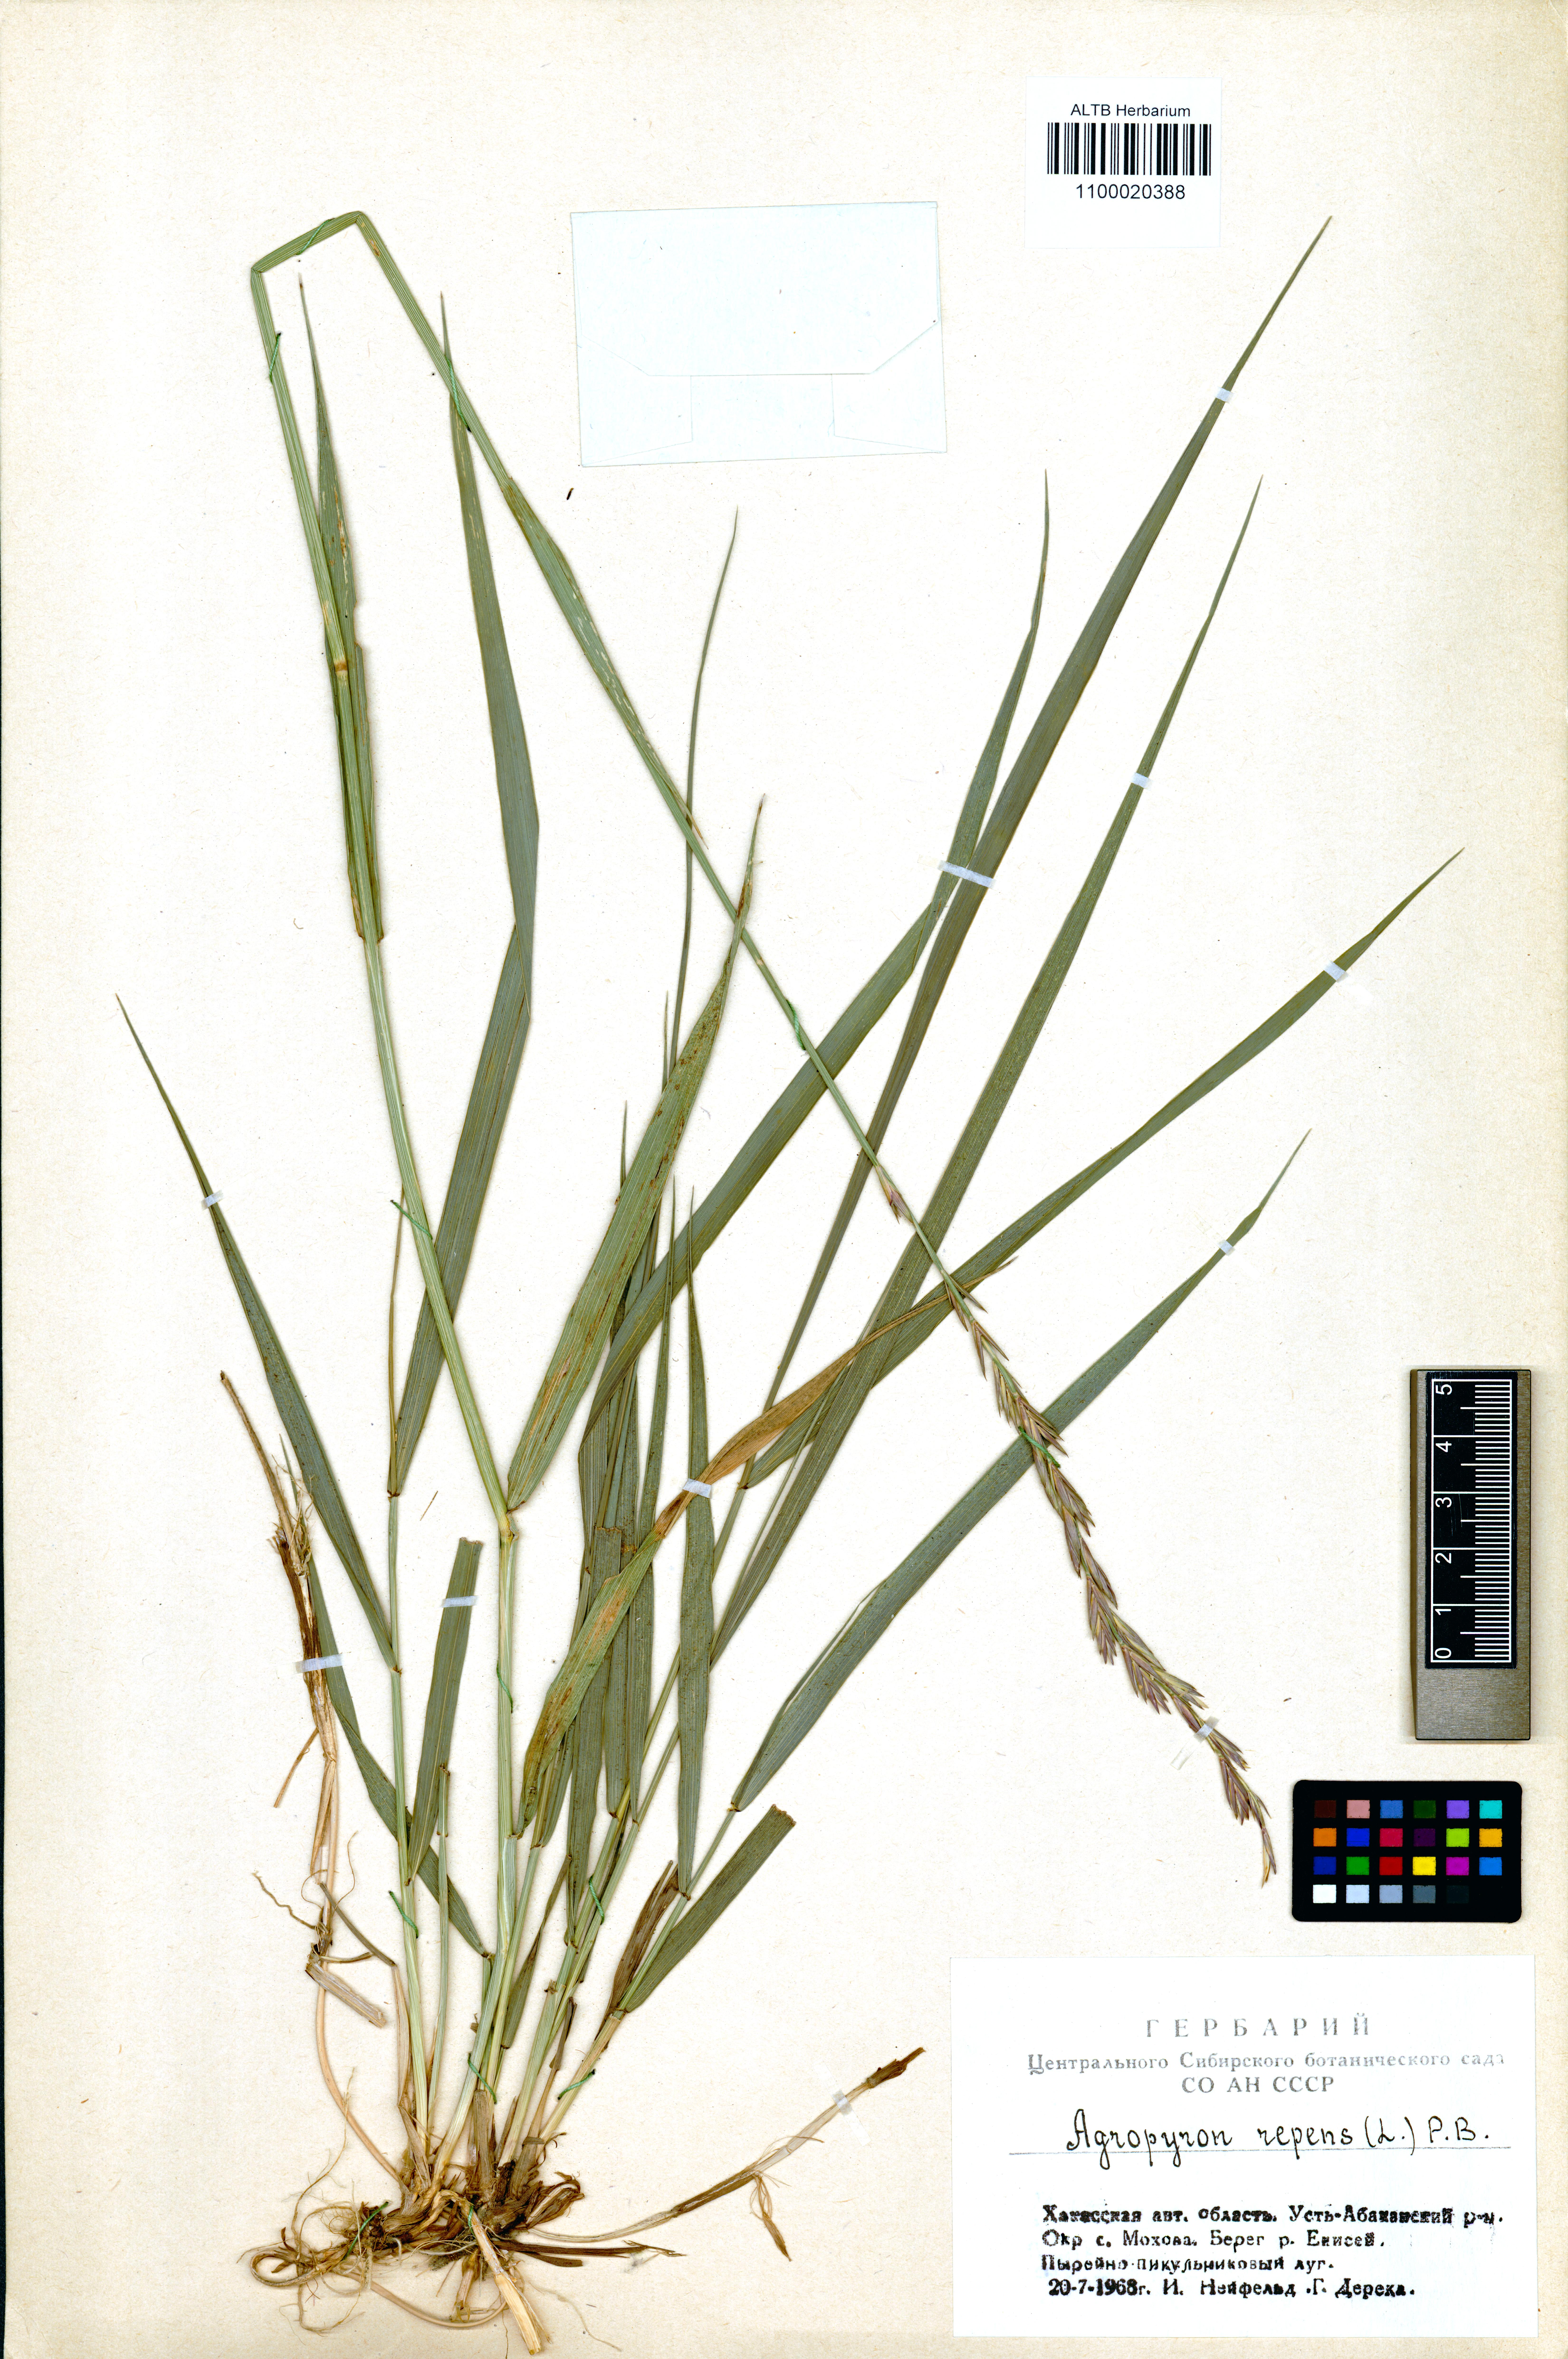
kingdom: Plantae
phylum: Tracheophyta
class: Liliopsida
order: Poales
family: Poaceae
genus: Elymus
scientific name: Elymus repens
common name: Quackgrass
